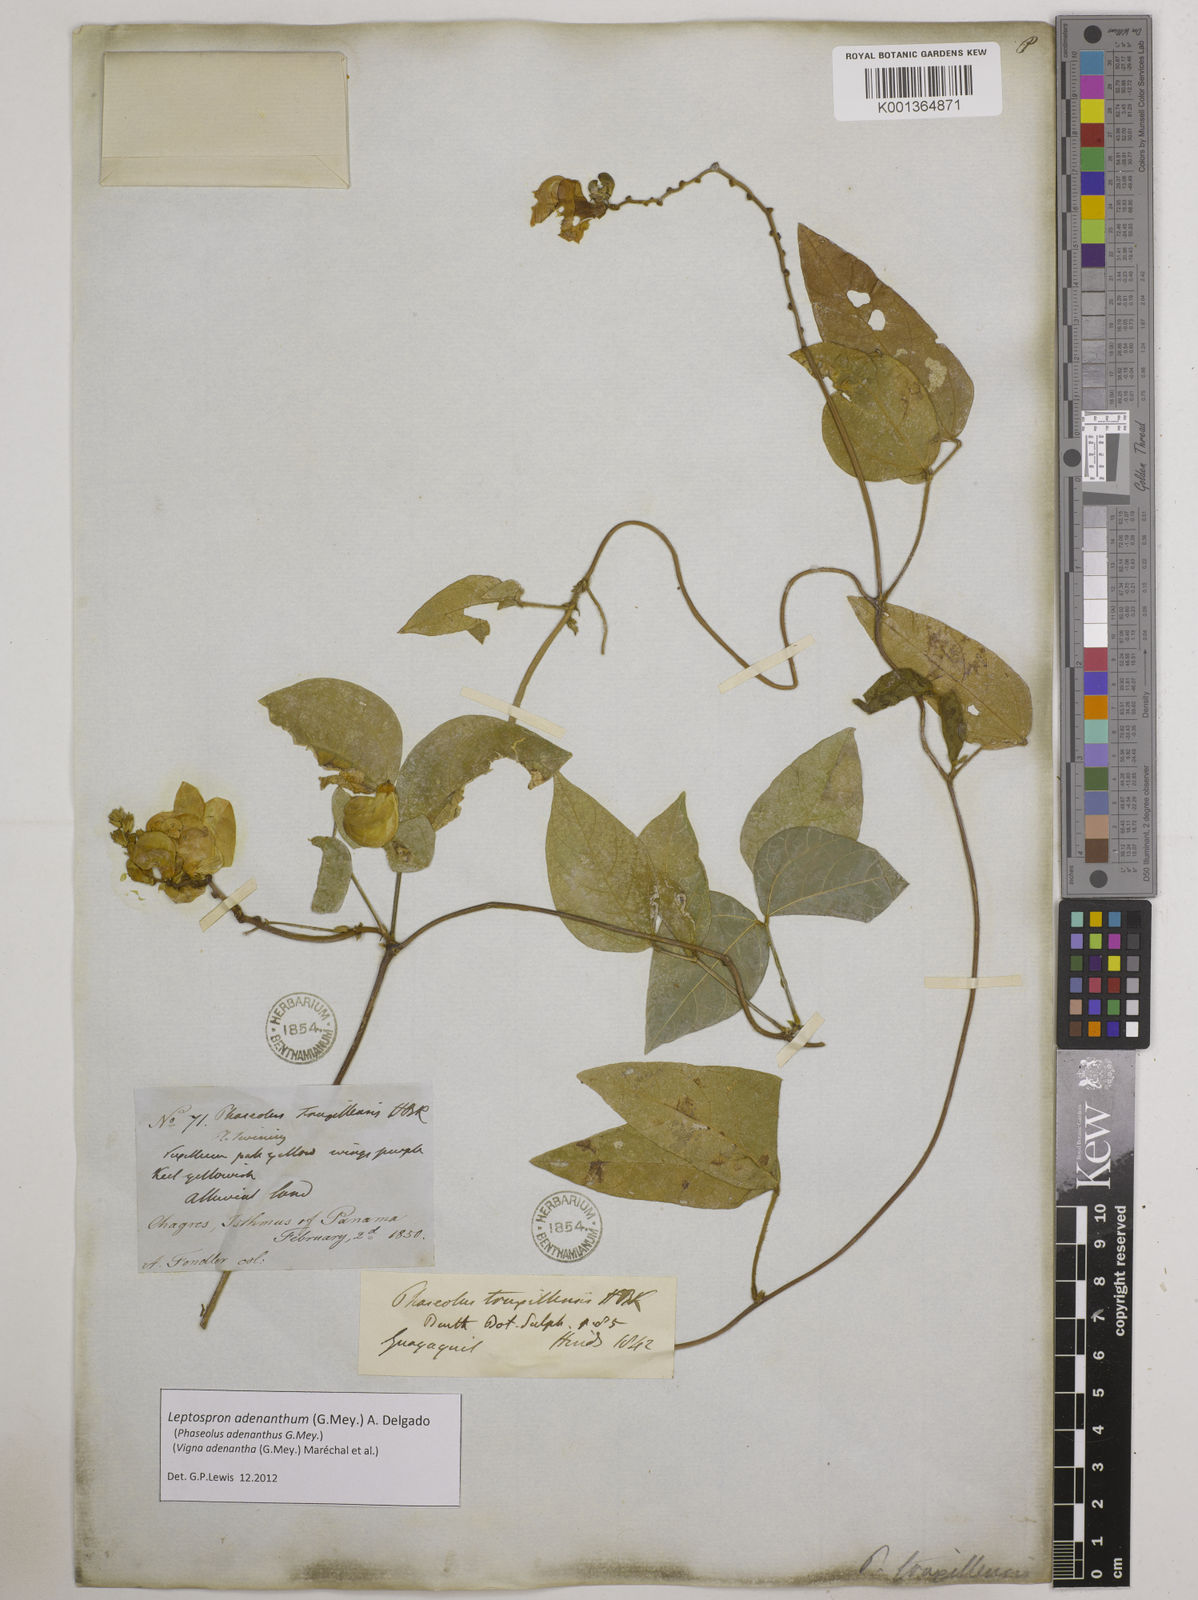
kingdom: Plantae
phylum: Tracheophyta
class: Magnoliopsida
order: Fabales
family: Fabaceae
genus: Leptospron
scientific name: Leptospron adenanthum
